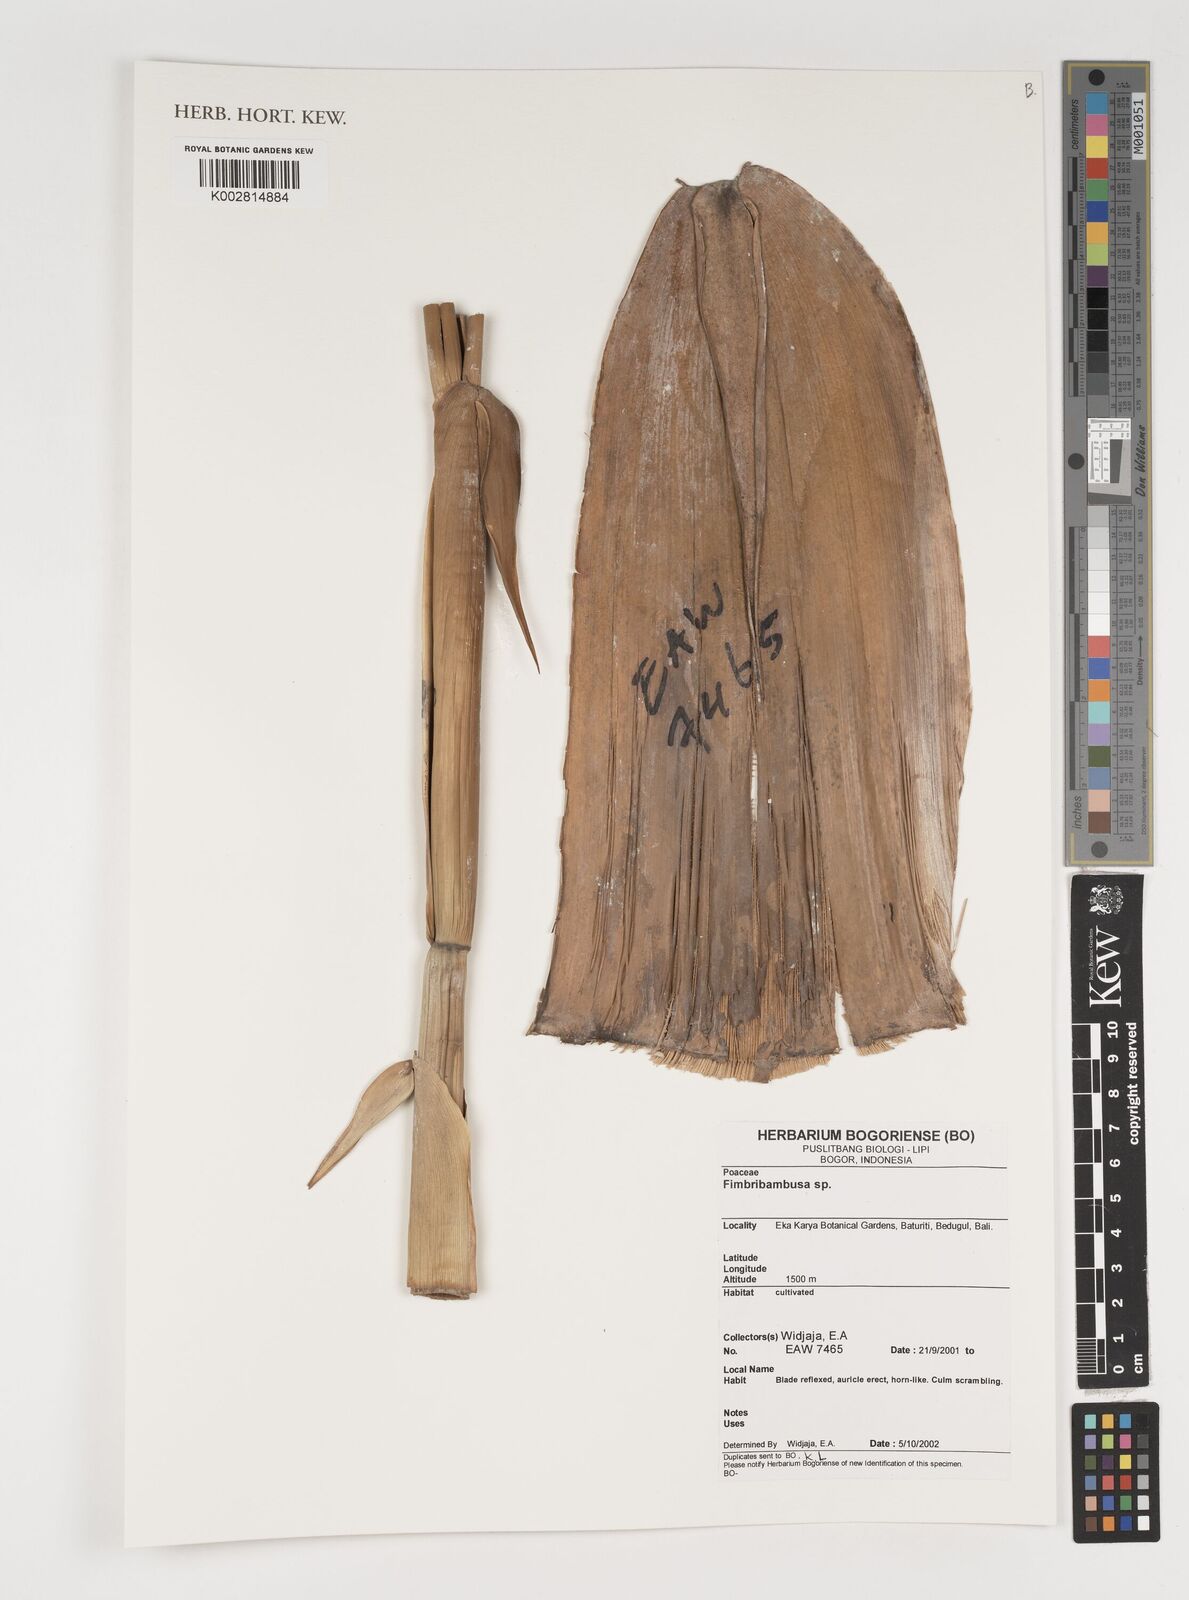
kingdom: Plantae
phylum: Tracheophyta
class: Liliopsida
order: Poales
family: Poaceae
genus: Fimbribambusa
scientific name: Fimbribambusa horsfieldii
